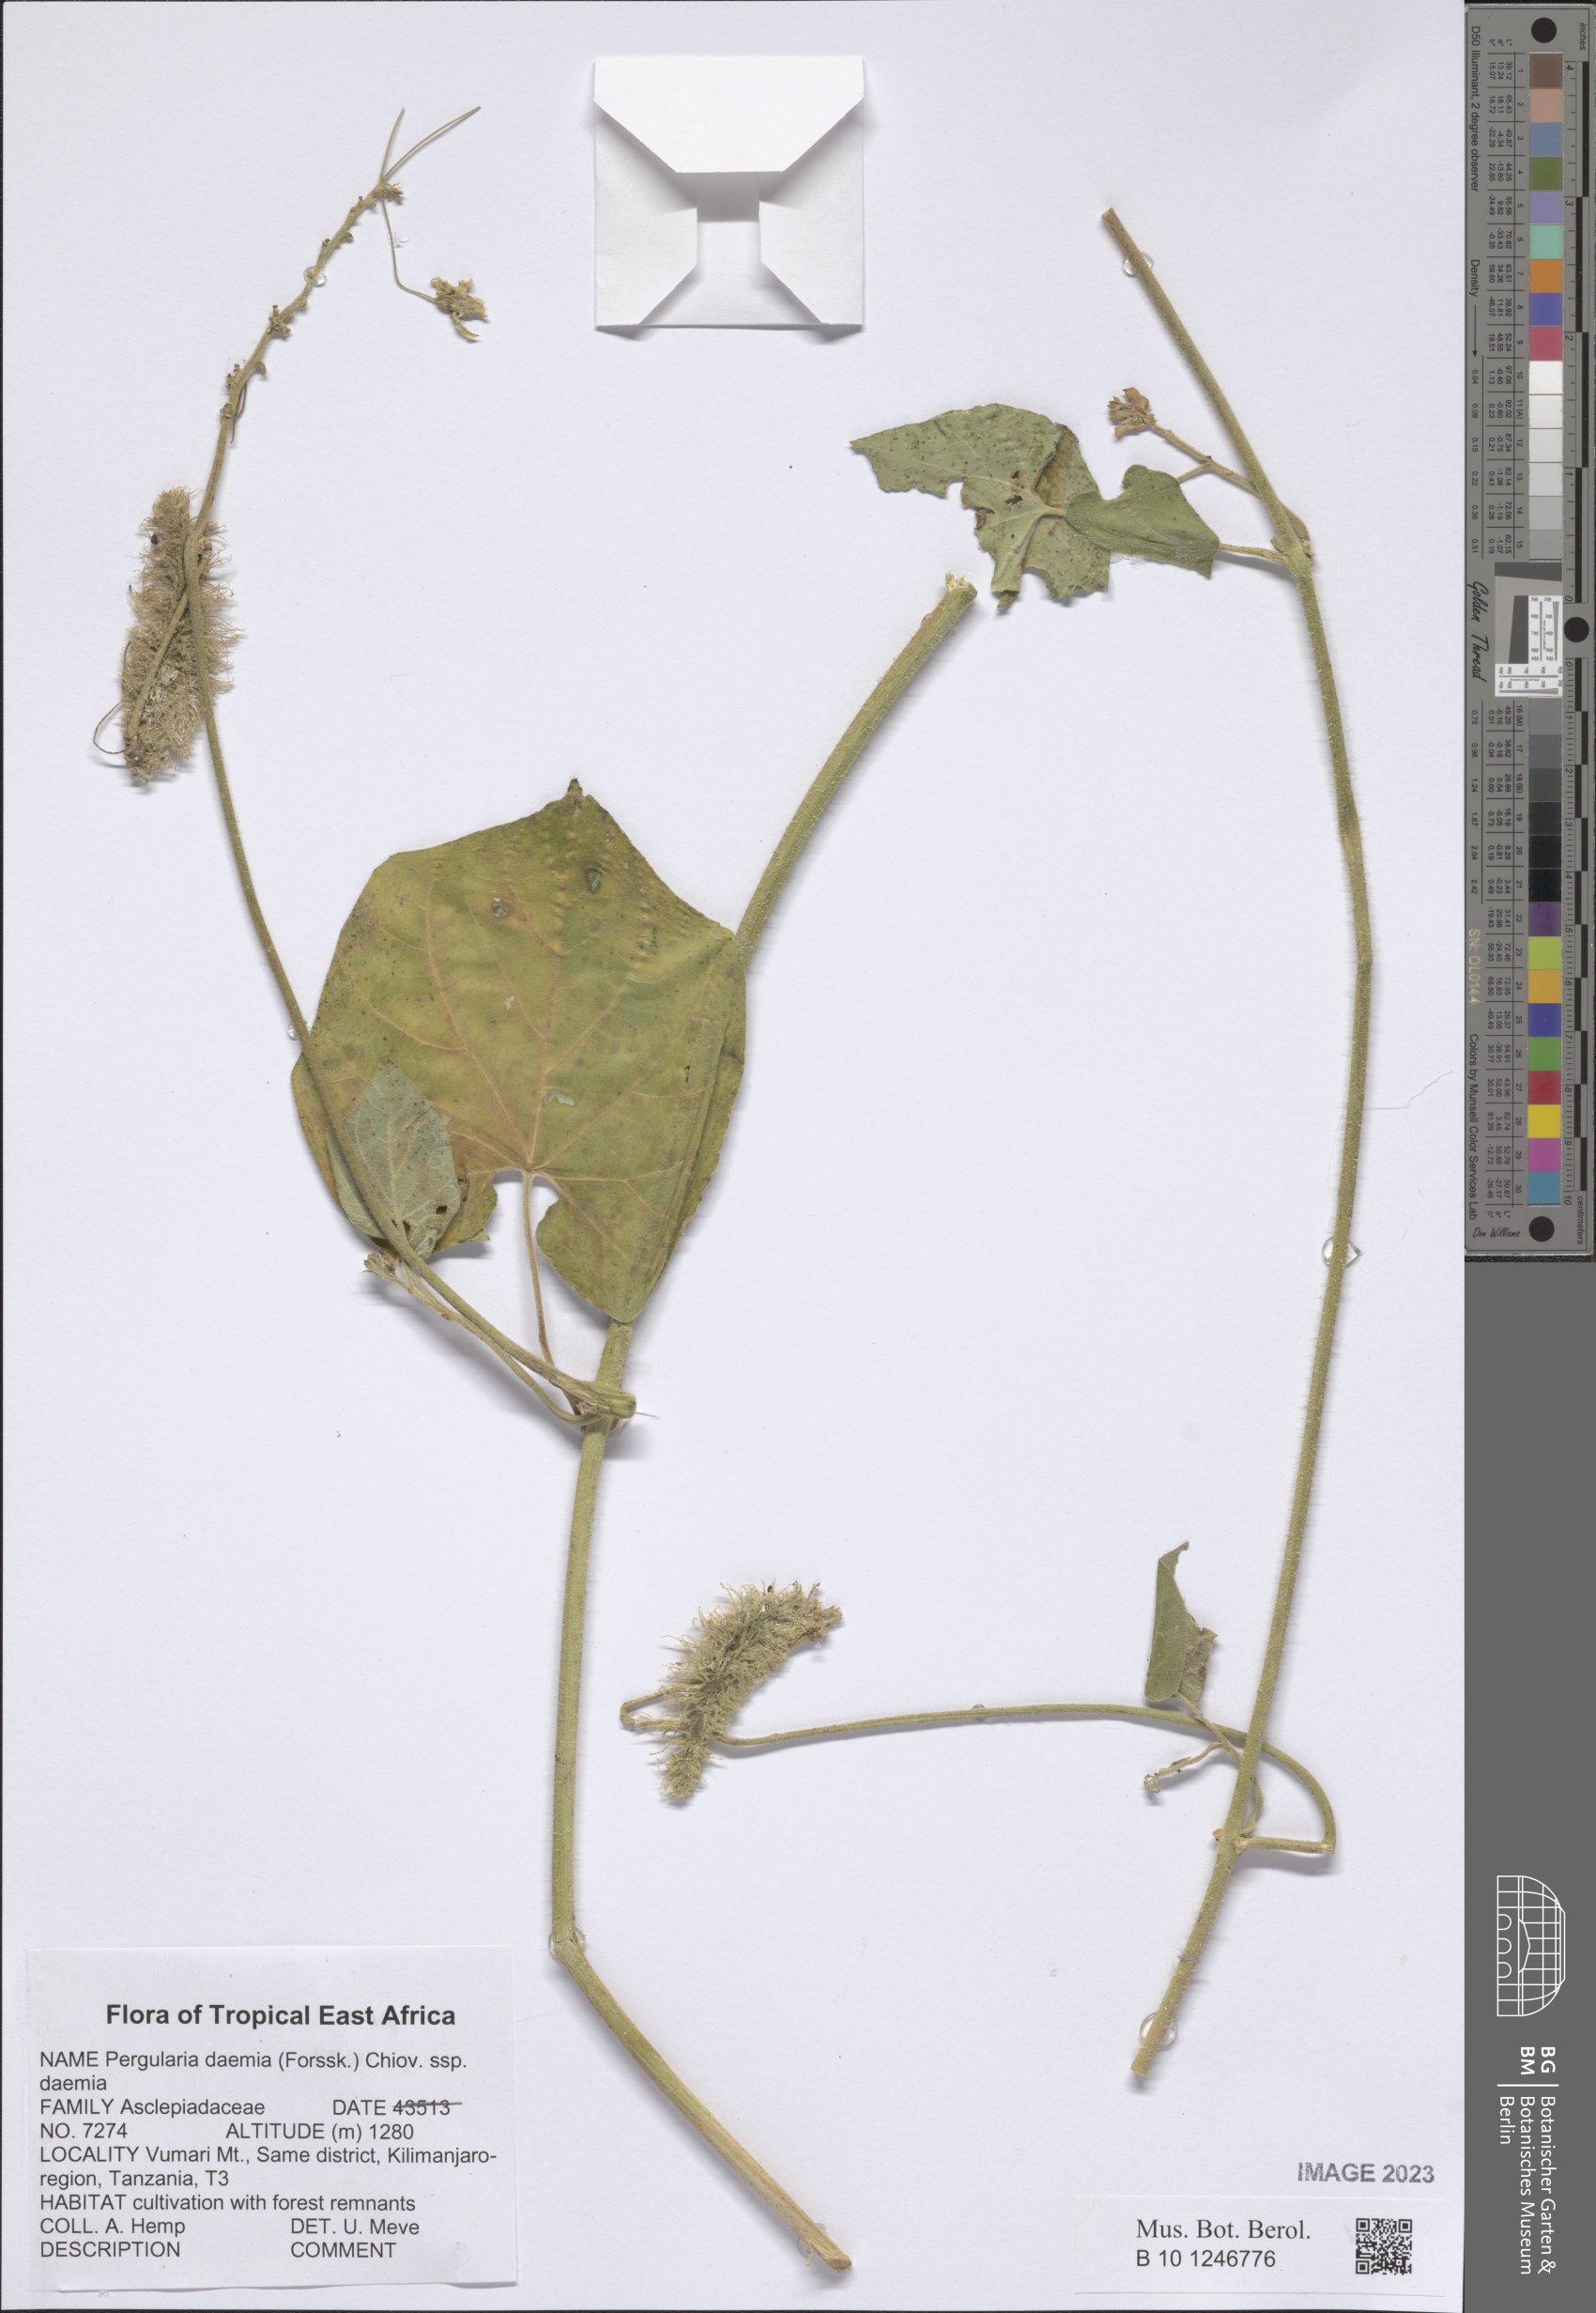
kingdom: Plantae
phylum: Tracheophyta
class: Magnoliopsida
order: Gentianales
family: Apocynaceae
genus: Pergularia
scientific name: Pergularia daemia
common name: Trellis-vine
